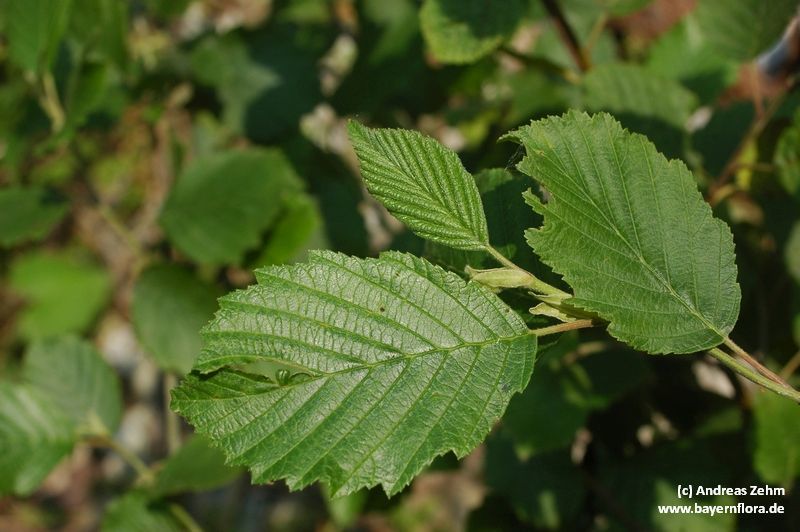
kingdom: Plantae
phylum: Tracheophyta
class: Magnoliopsida
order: Fagales
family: Betulaceae
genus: Alnus
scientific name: Alnus incana
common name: Grey alder
